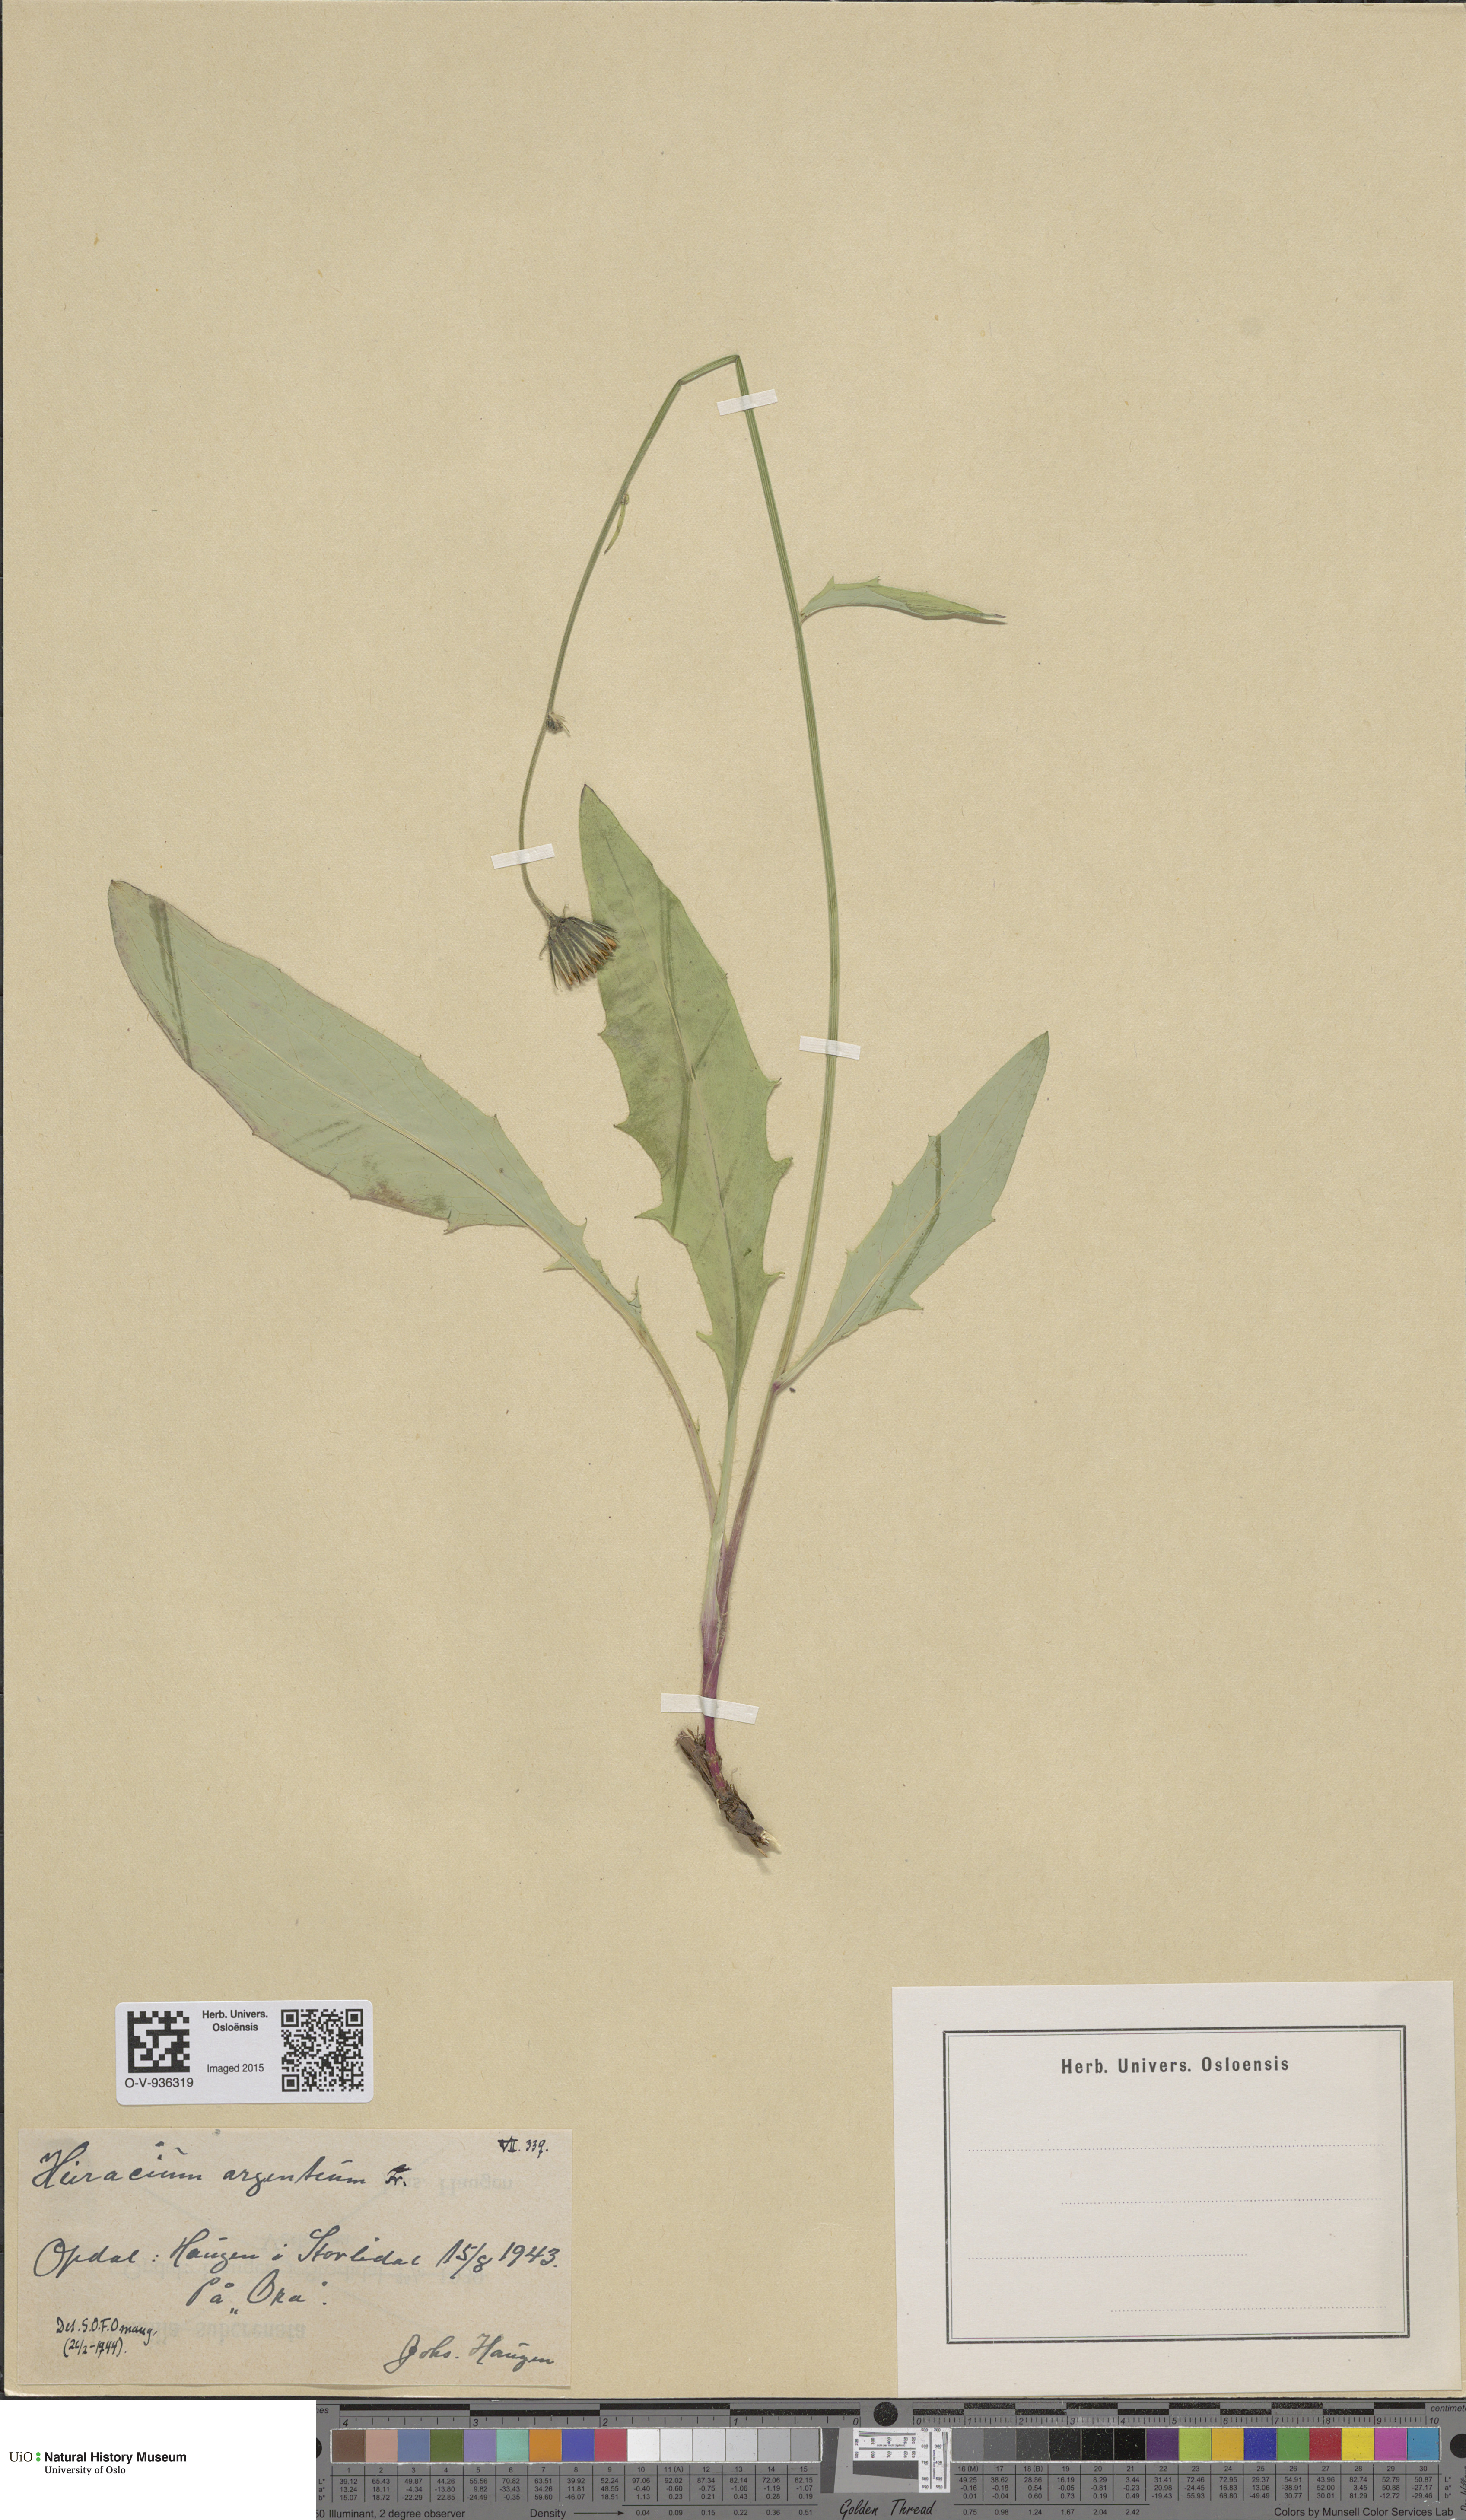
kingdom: Plantae
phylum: Tracheophyta
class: Magnoliopsida
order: Asterales
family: Asteraceae
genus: Hieracium
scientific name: Hieracium argenteum
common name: Silver hawkweed
